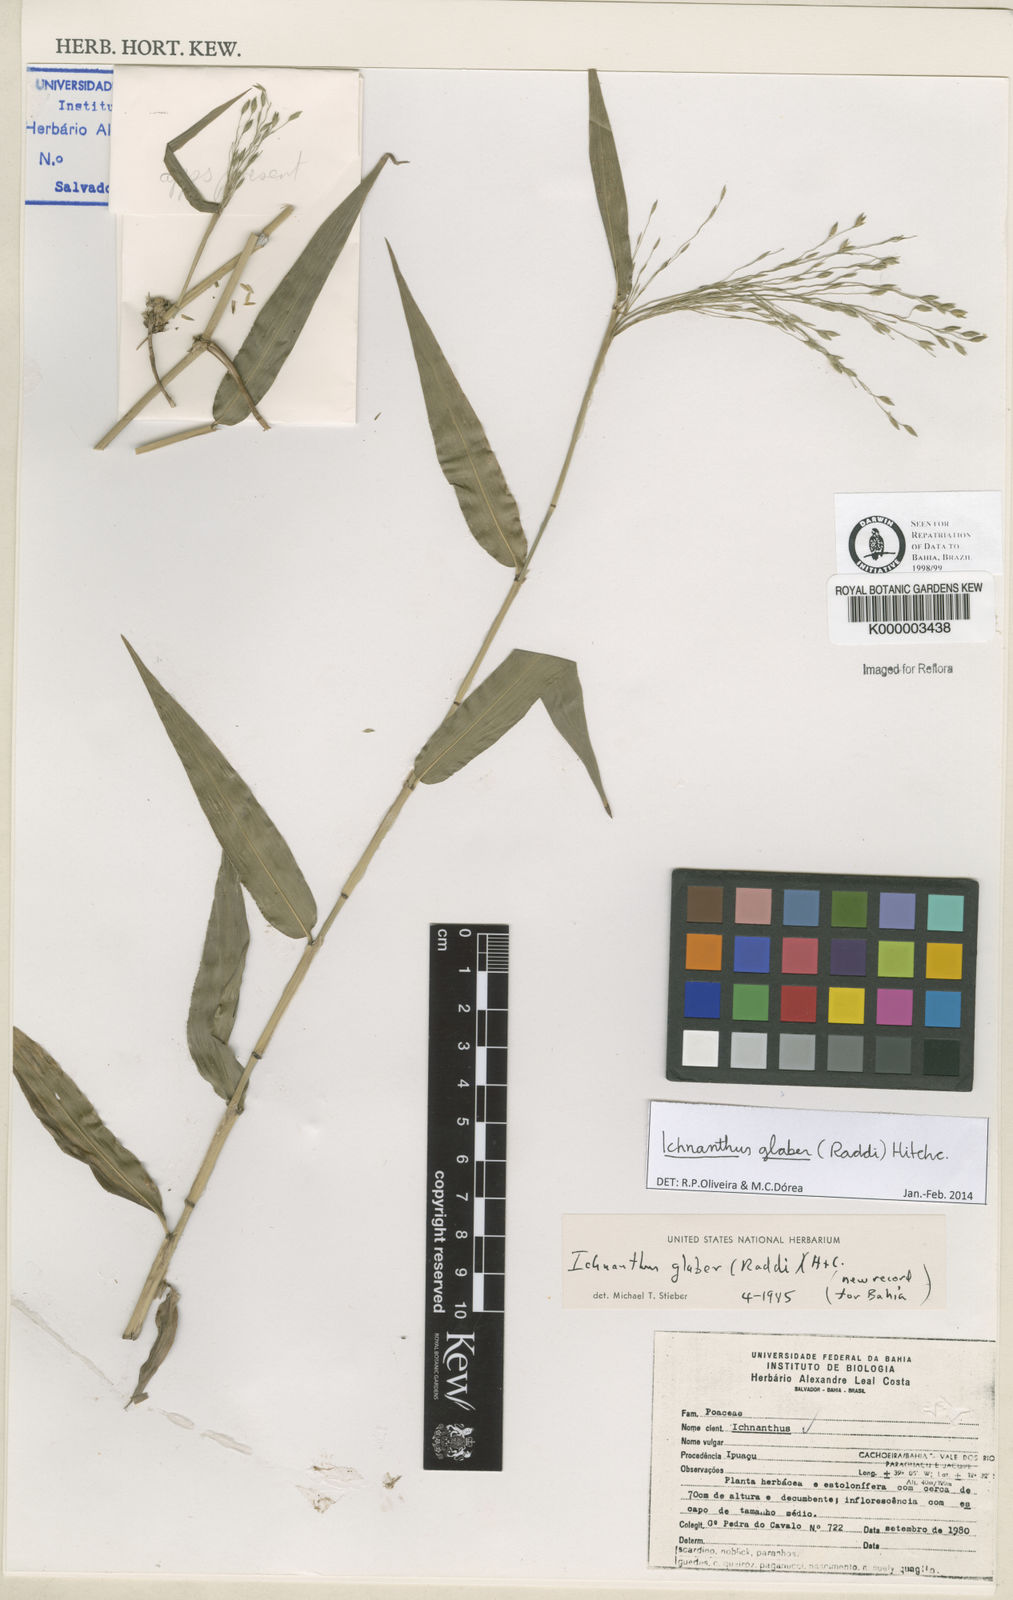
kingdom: Plantae
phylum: Tracheophyta
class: Liliopsida
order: Poales
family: Poaceae
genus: Ichnanthus
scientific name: Ichnanthus glaber
